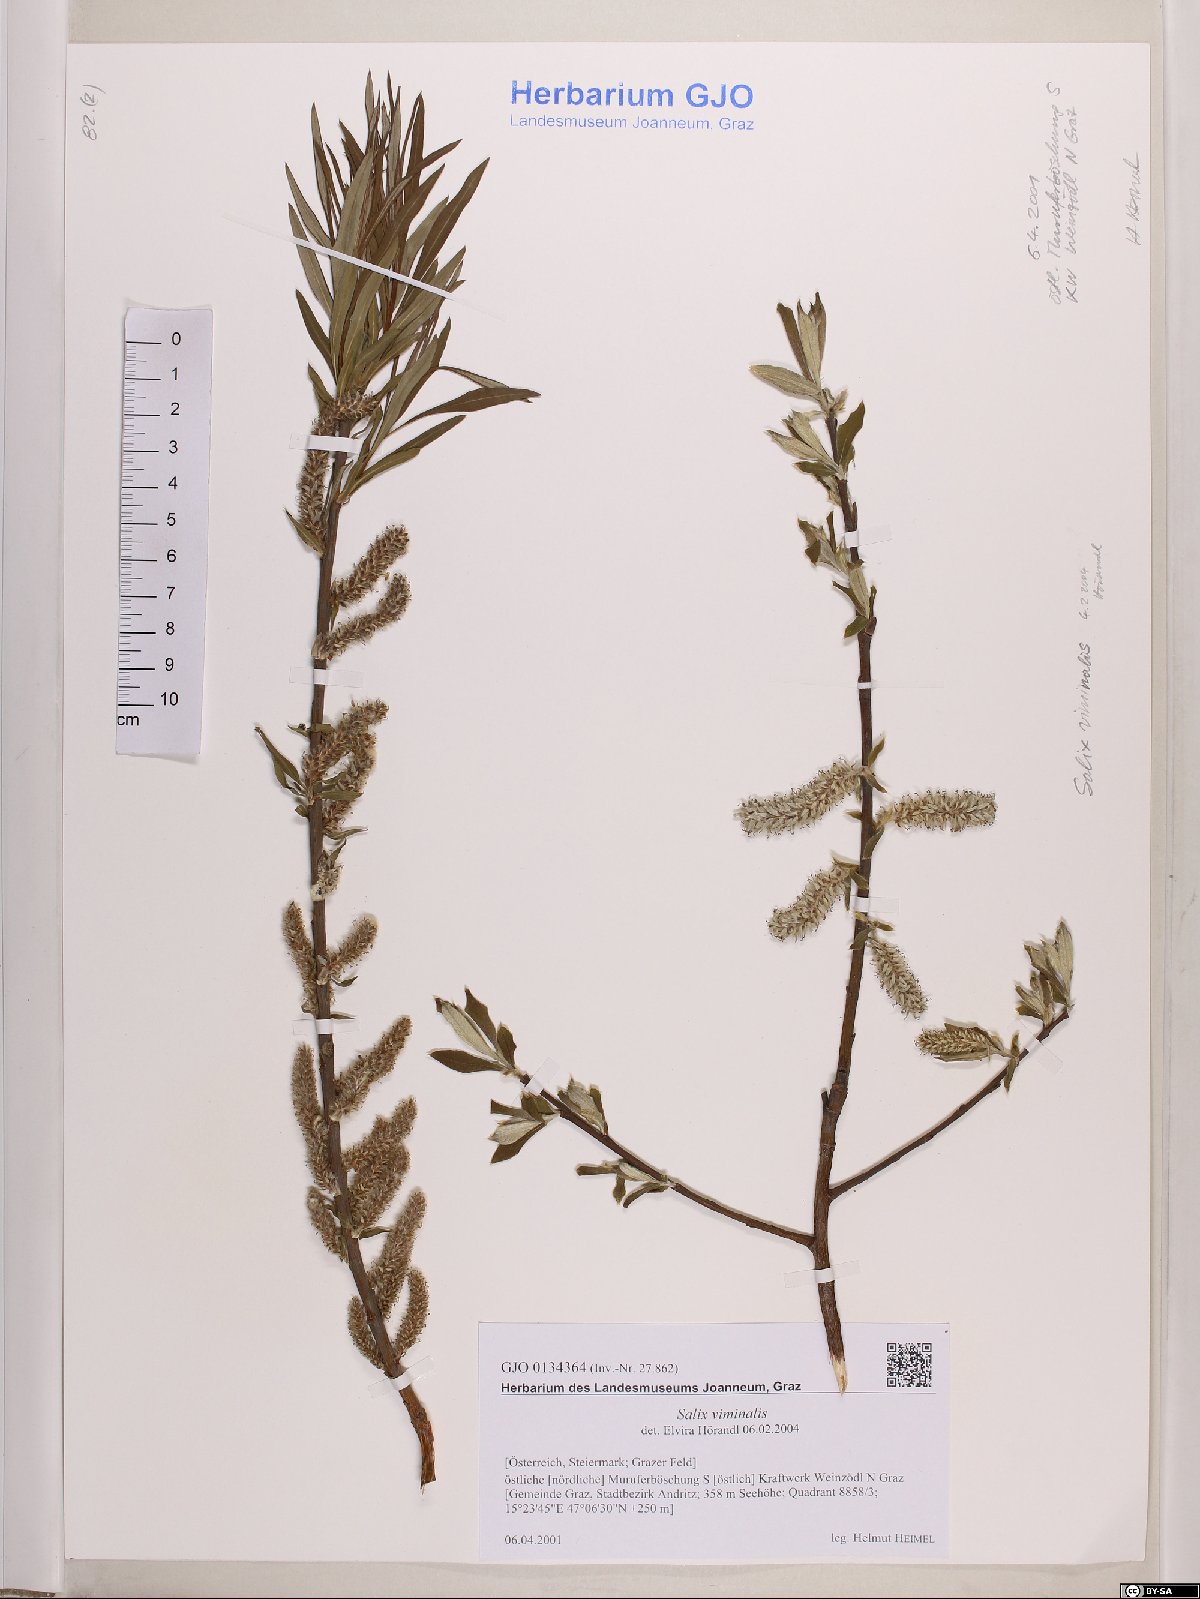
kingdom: Plantae
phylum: Tracheophyta
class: Magnoliopsida
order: Malpighiales
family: Salicaceae
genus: Salix
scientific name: Salix viminalis
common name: Osier
